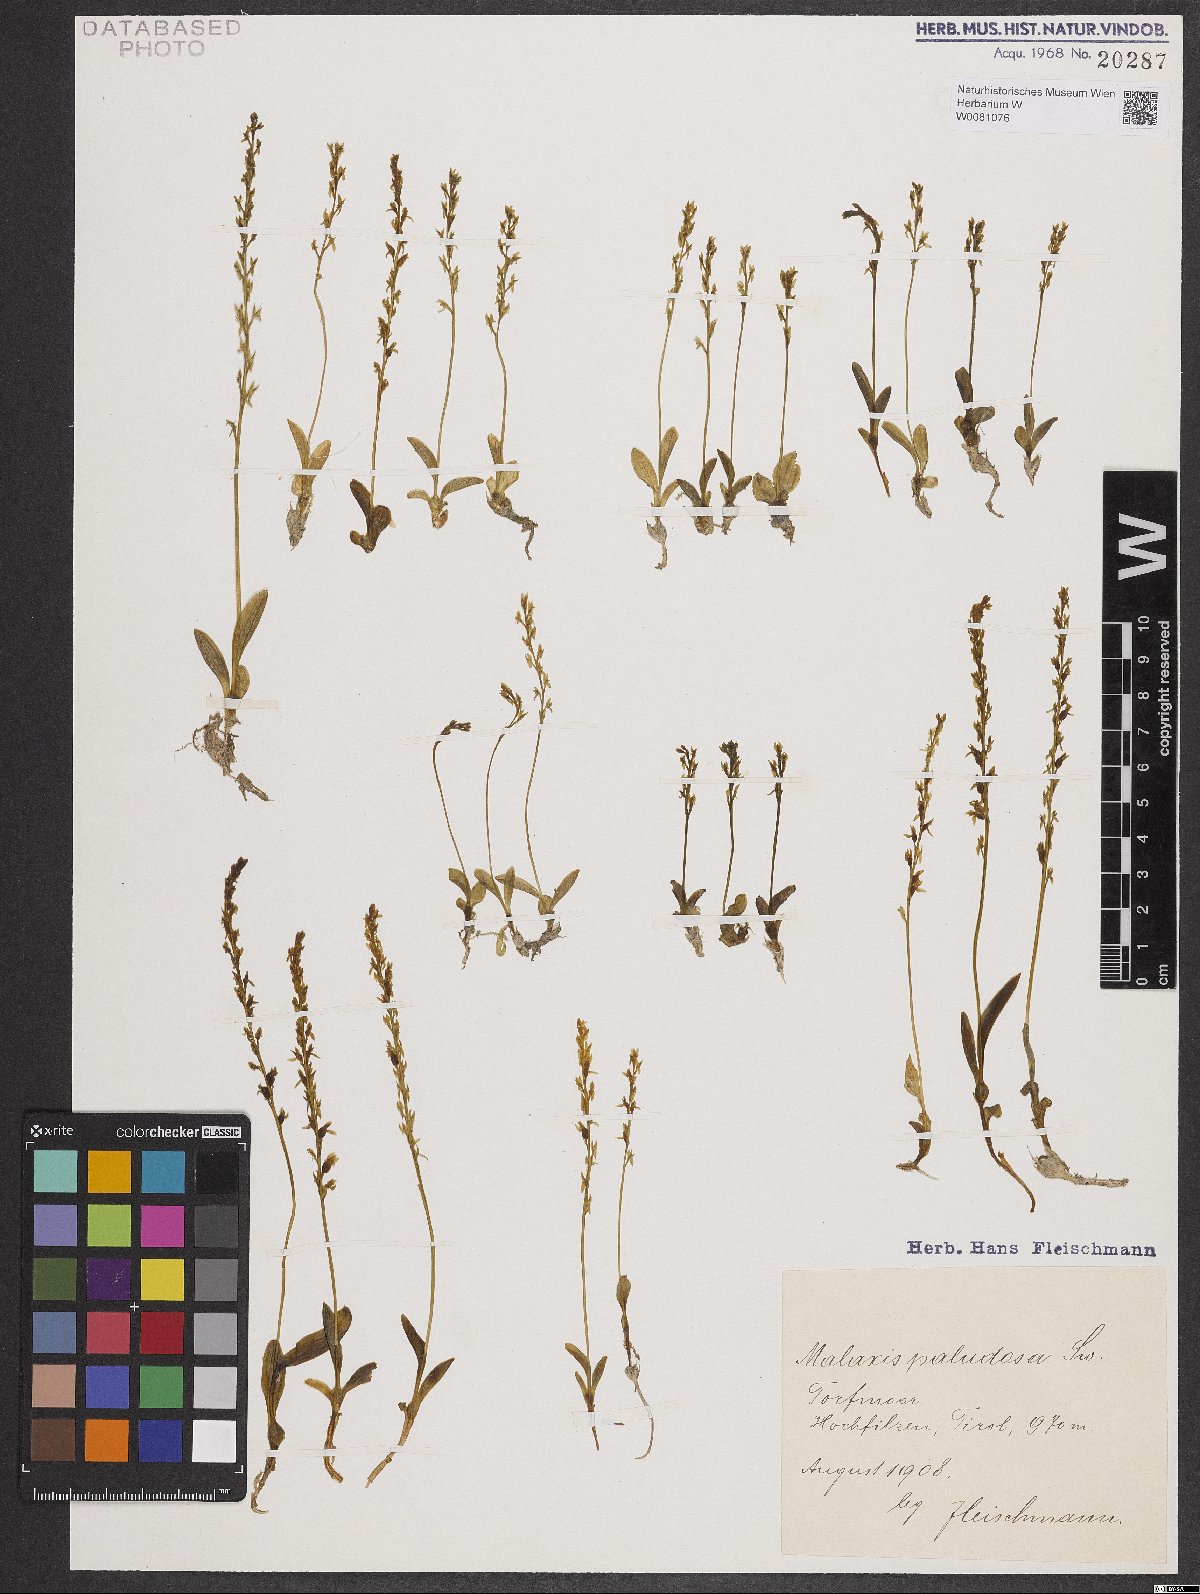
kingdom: Plantae
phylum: Tracheophyta
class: Liliopsida
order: Asparagales
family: Orchidaceae
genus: Hammarbya
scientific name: Hammarbya paludosa
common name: Bog orchid
